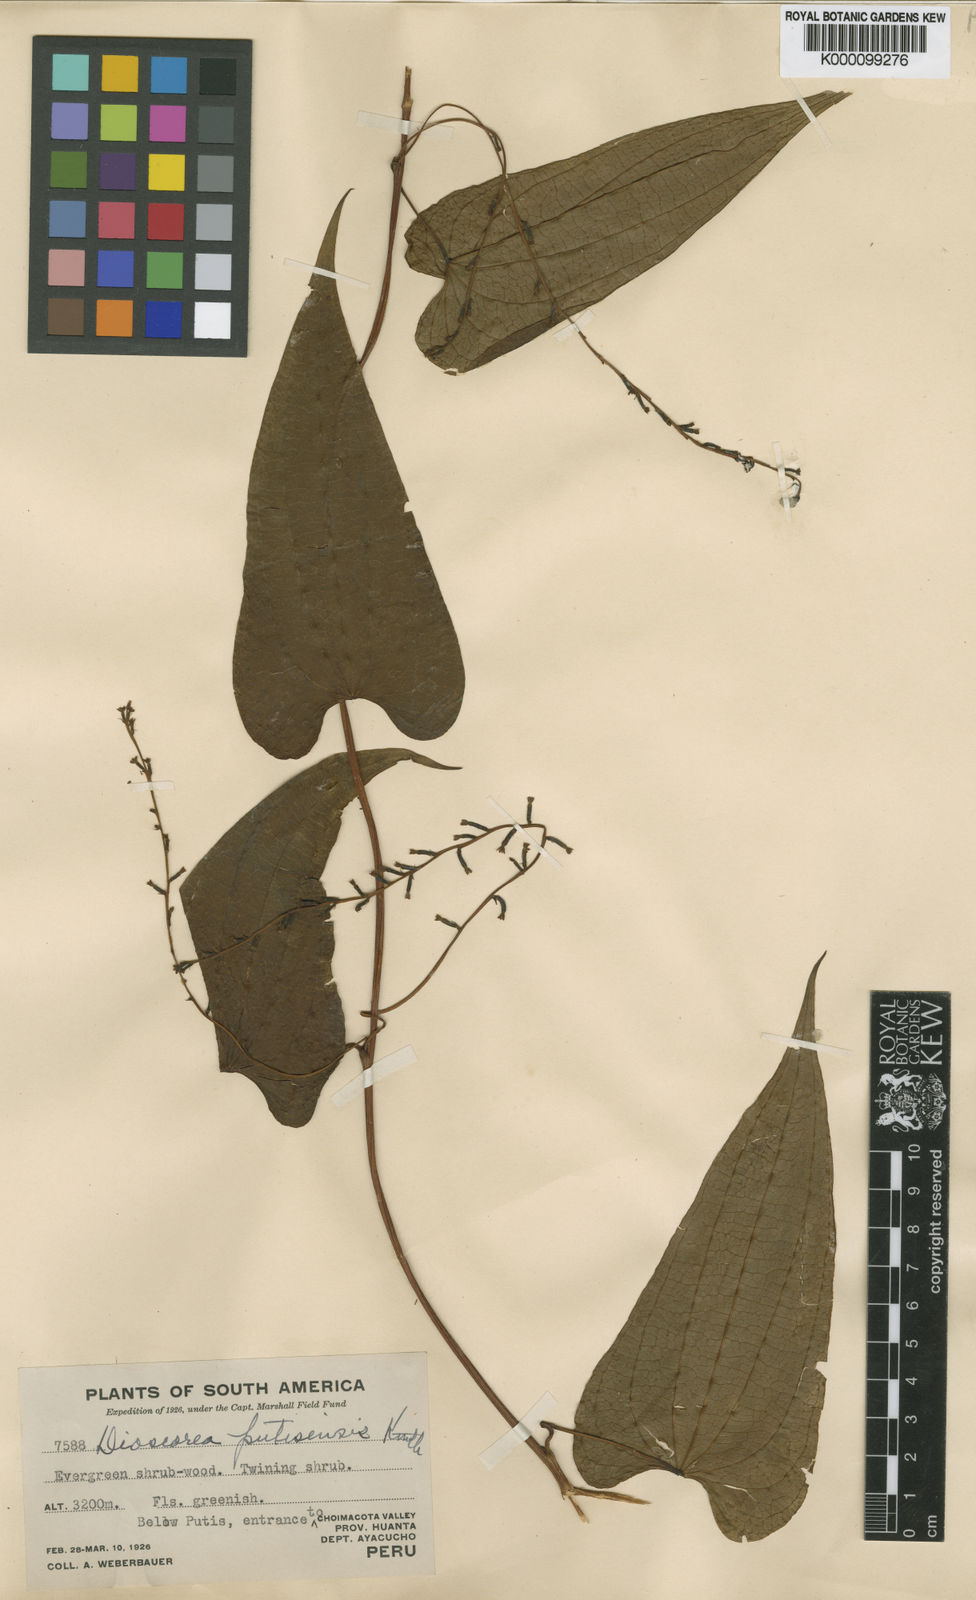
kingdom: Plantae
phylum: Tracheophyta
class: Liliopsida
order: Dioscoreales
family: Dioscoreaceae
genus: Dioscorea
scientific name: Dioscorea putisensis
